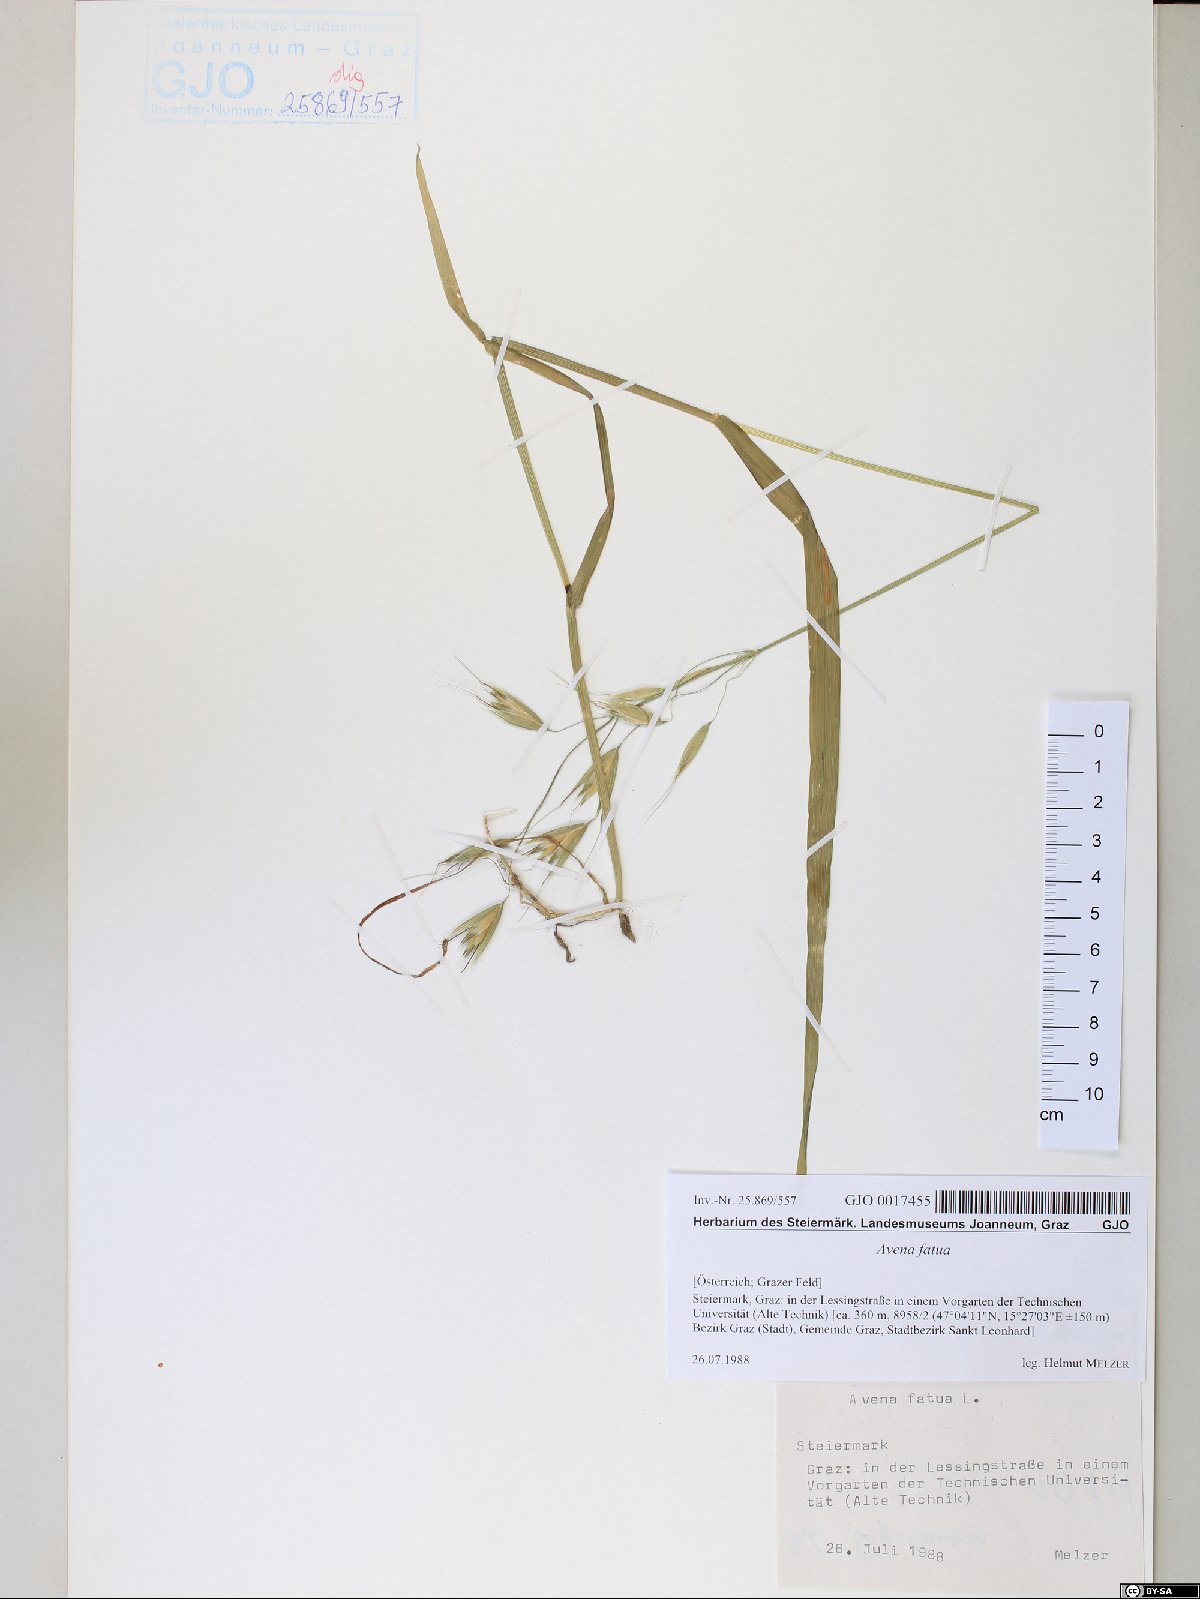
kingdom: Plantae
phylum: Tracheophyta
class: Liliopsida
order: Poales
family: Poaceae
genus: Avena
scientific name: Avena fatua
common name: Wild oat
